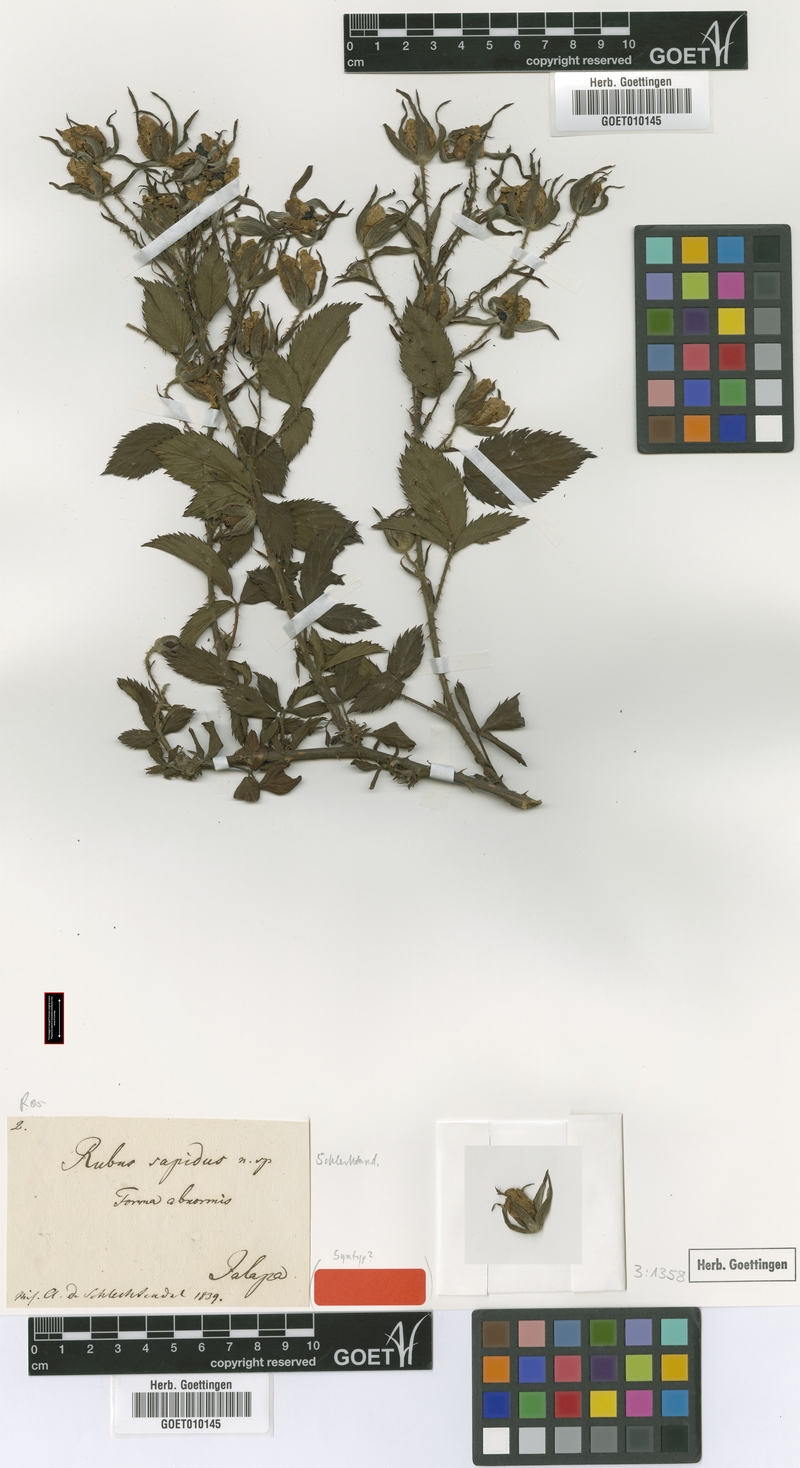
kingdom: Plantae
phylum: Tracheophyta
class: Magnoliopsida
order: Rosales
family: Rosaceae
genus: Rubus
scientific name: Rubus sapidus
